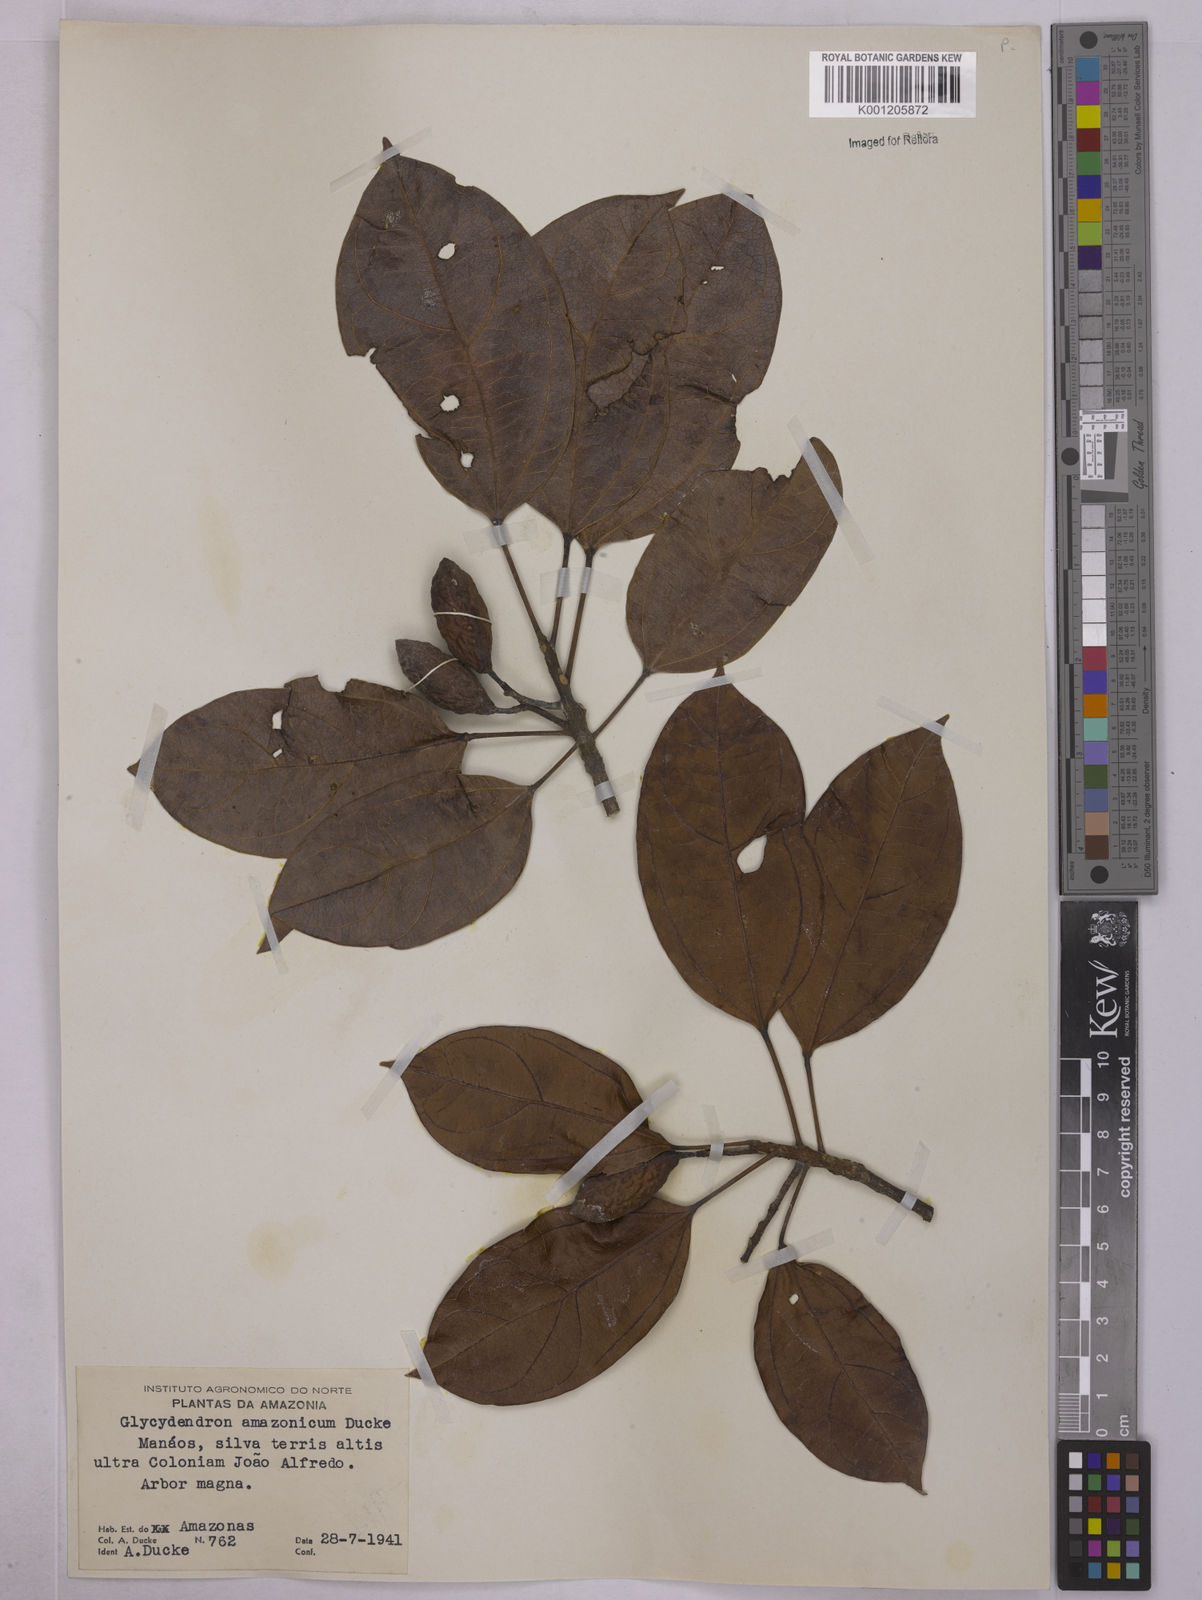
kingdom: Plantae
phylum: Tracheophyta
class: Magnoliopsida
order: Malpighiales
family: Euphorbiaceae
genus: Glycydendron
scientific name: Glycydendron amazonicum
